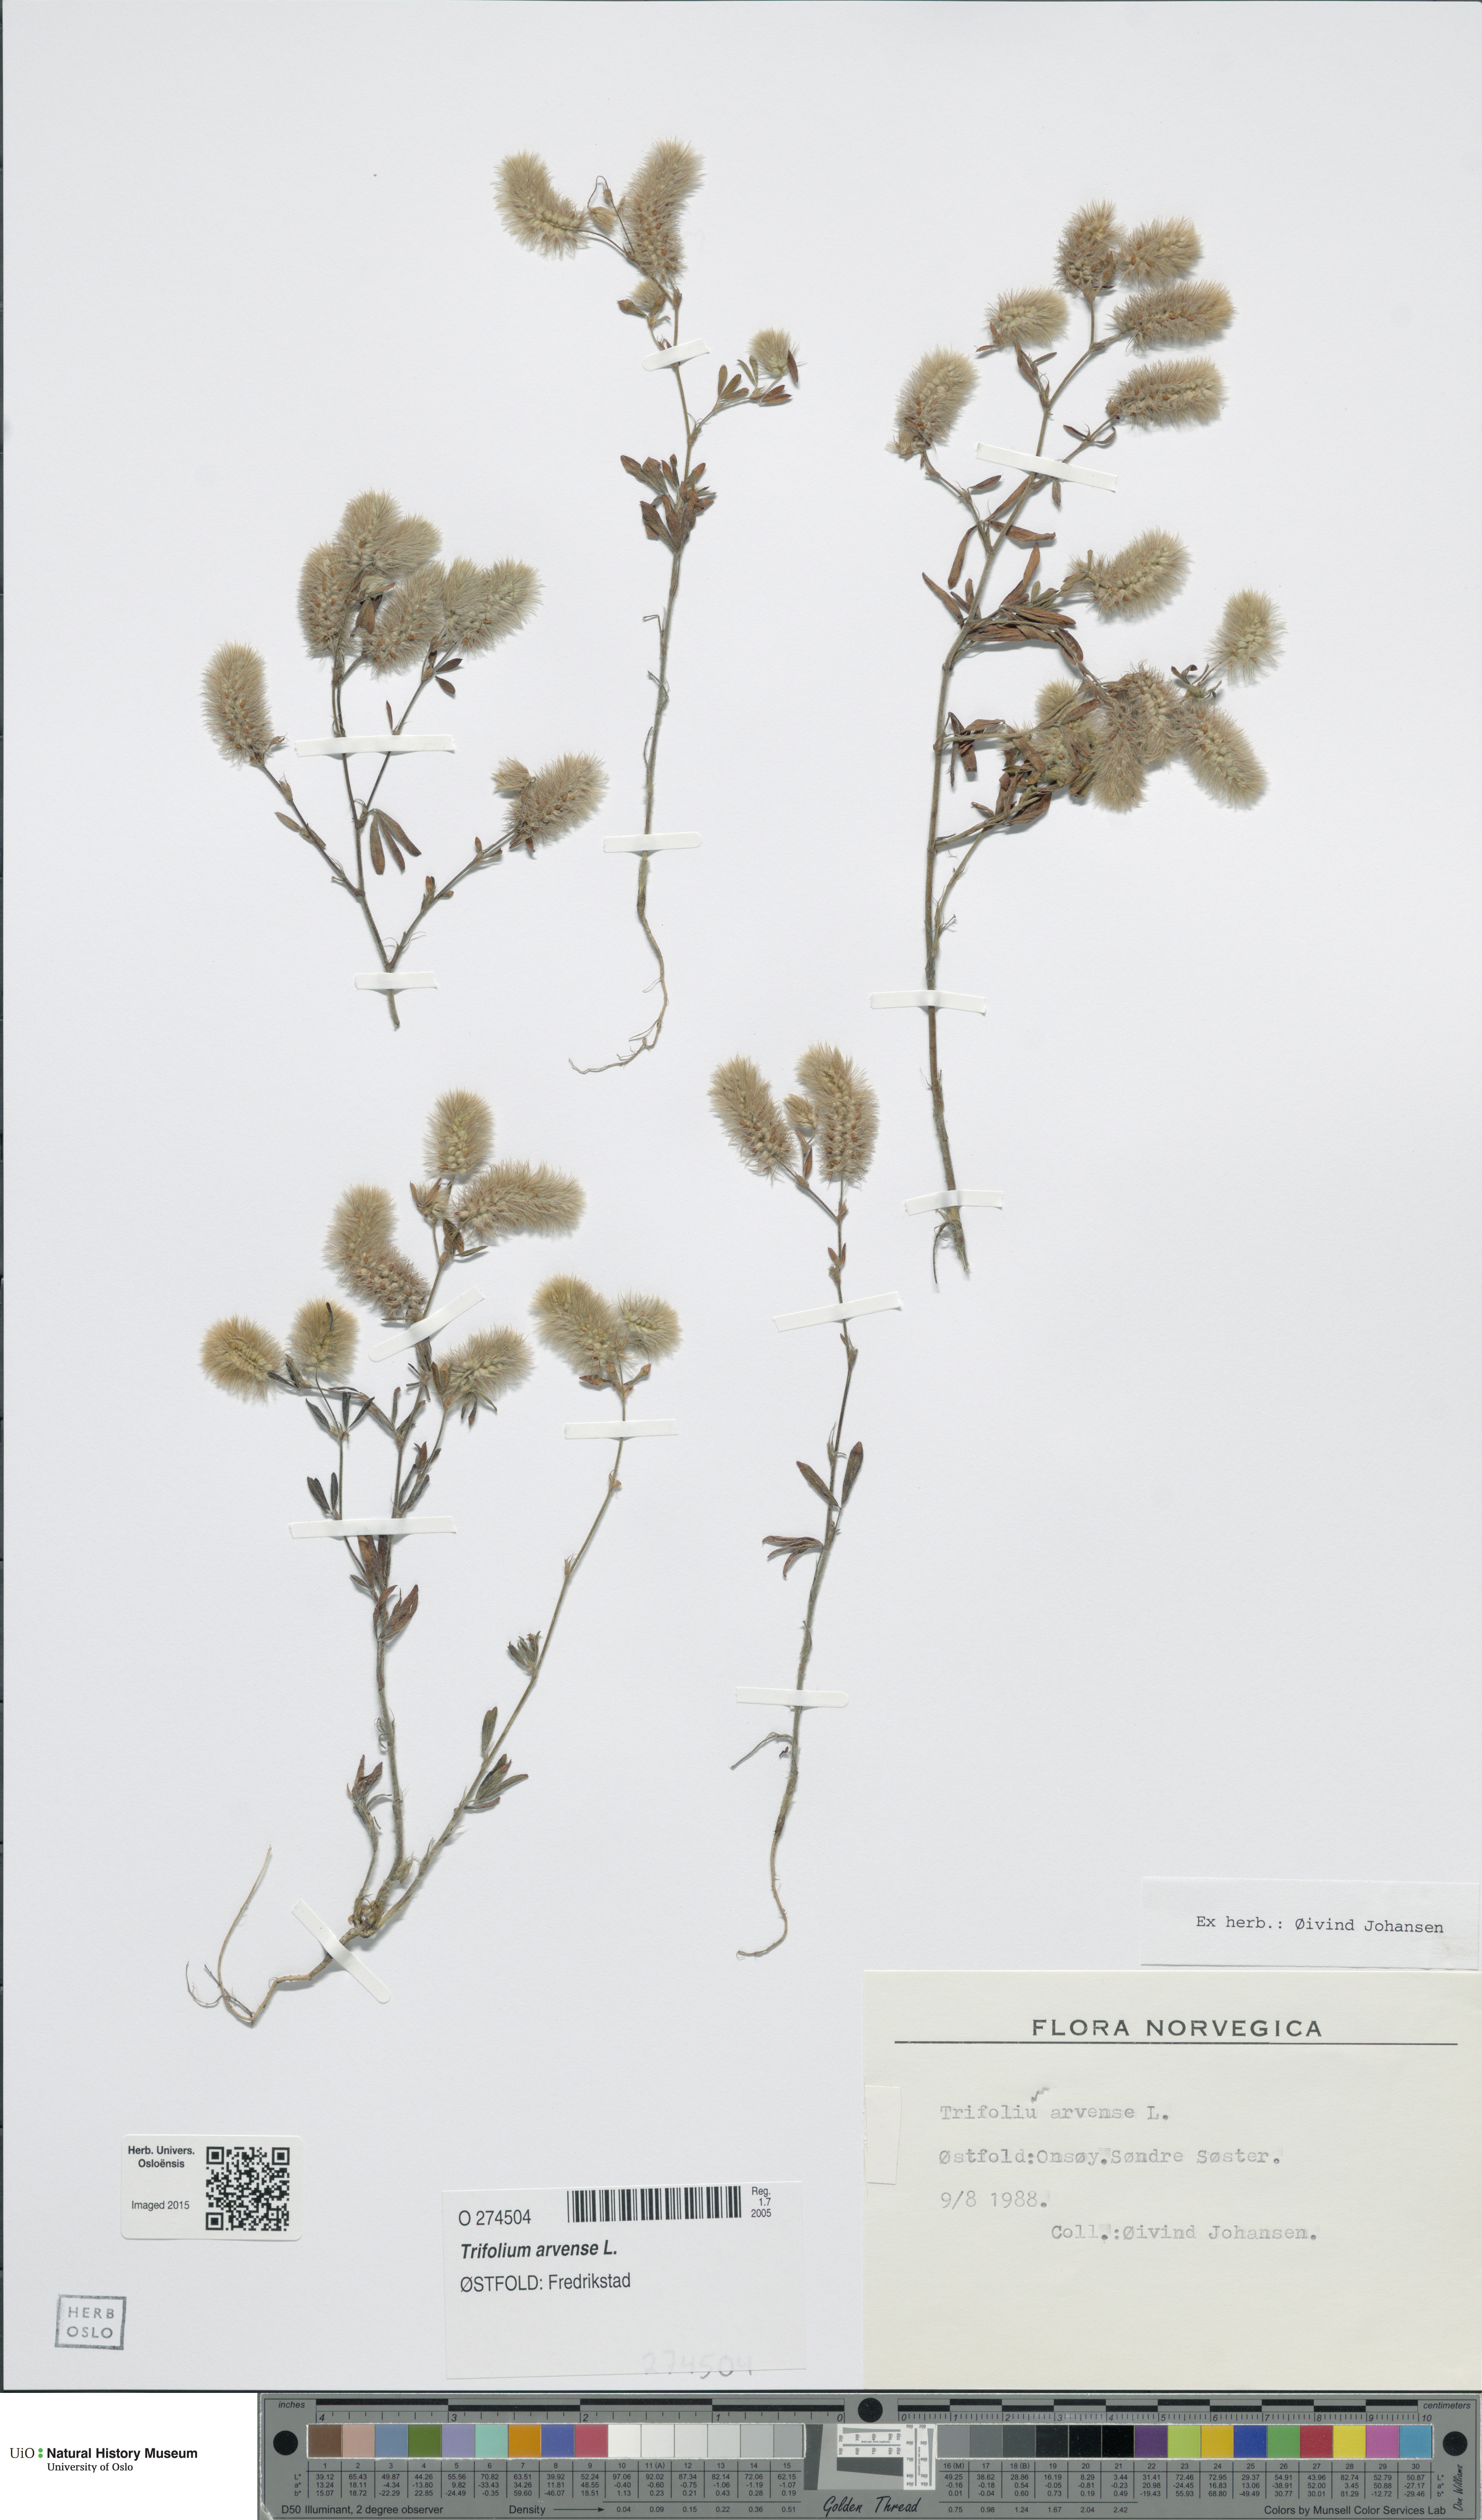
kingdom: Plantae
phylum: Tracheophyta
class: Magnoliopsida
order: Fabales
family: Fabaceae
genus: Trifolium
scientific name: Trifolium arvense
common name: Hare's-foot clover
